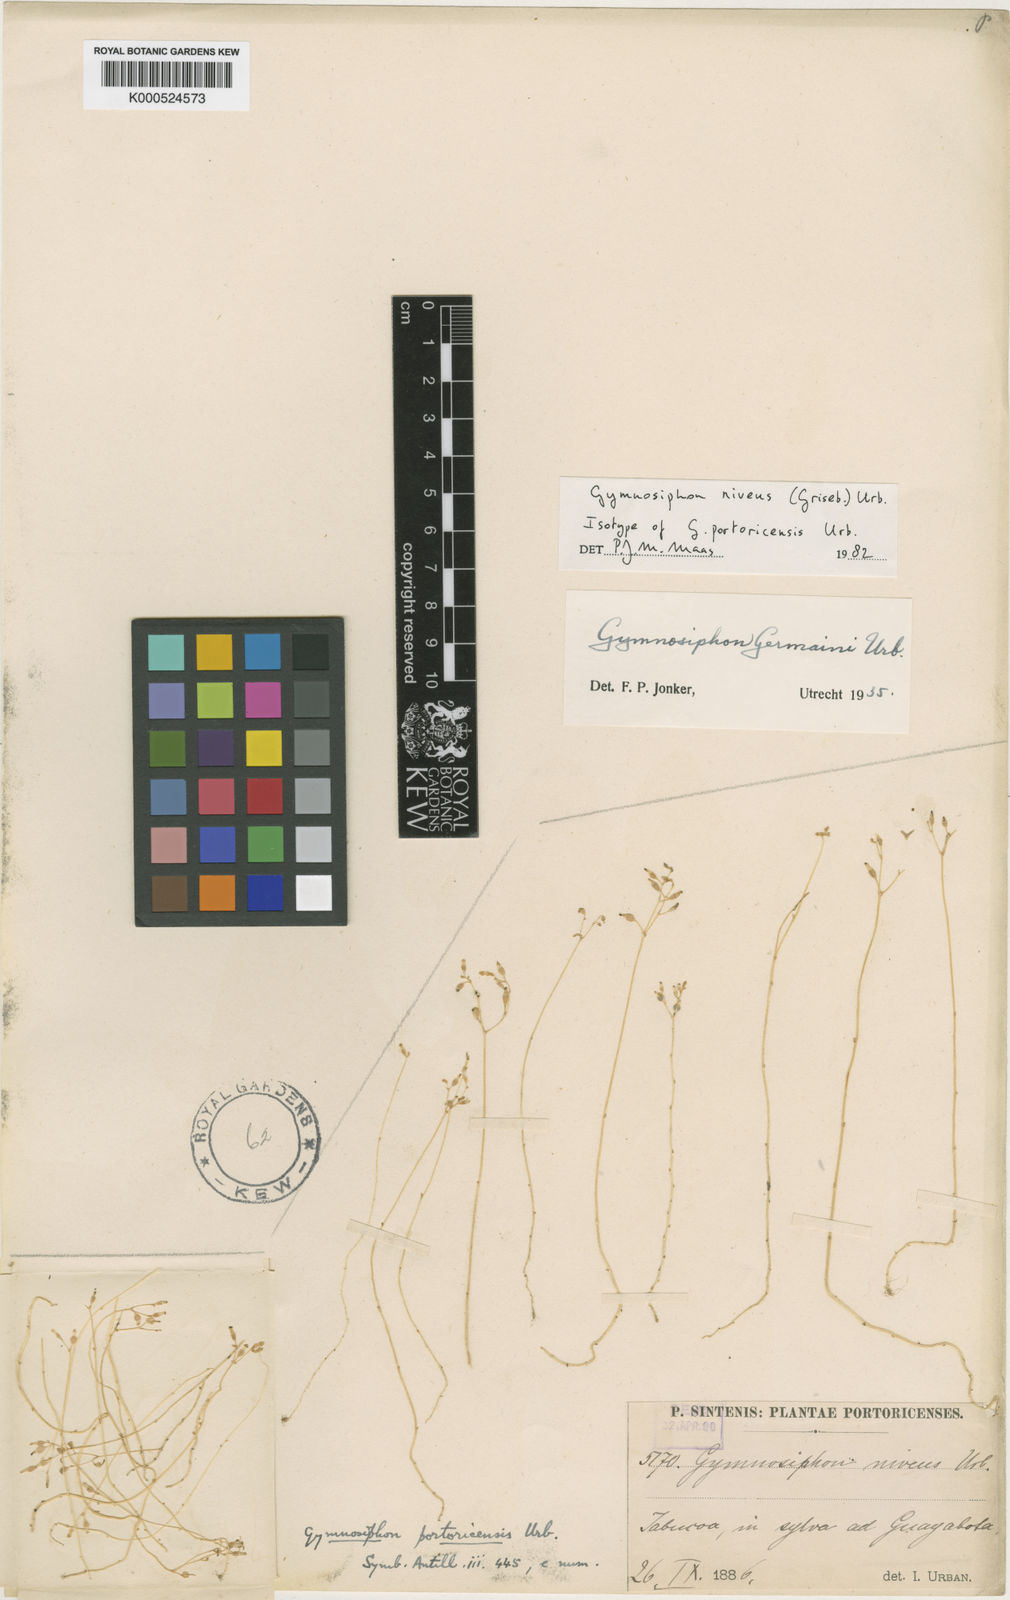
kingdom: Plantae
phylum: Tracheophyta
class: Liliopsida
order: Dioscoreales
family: Burmanniaceae
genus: Gymnosiphon
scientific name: Gymnosiphon niveus
